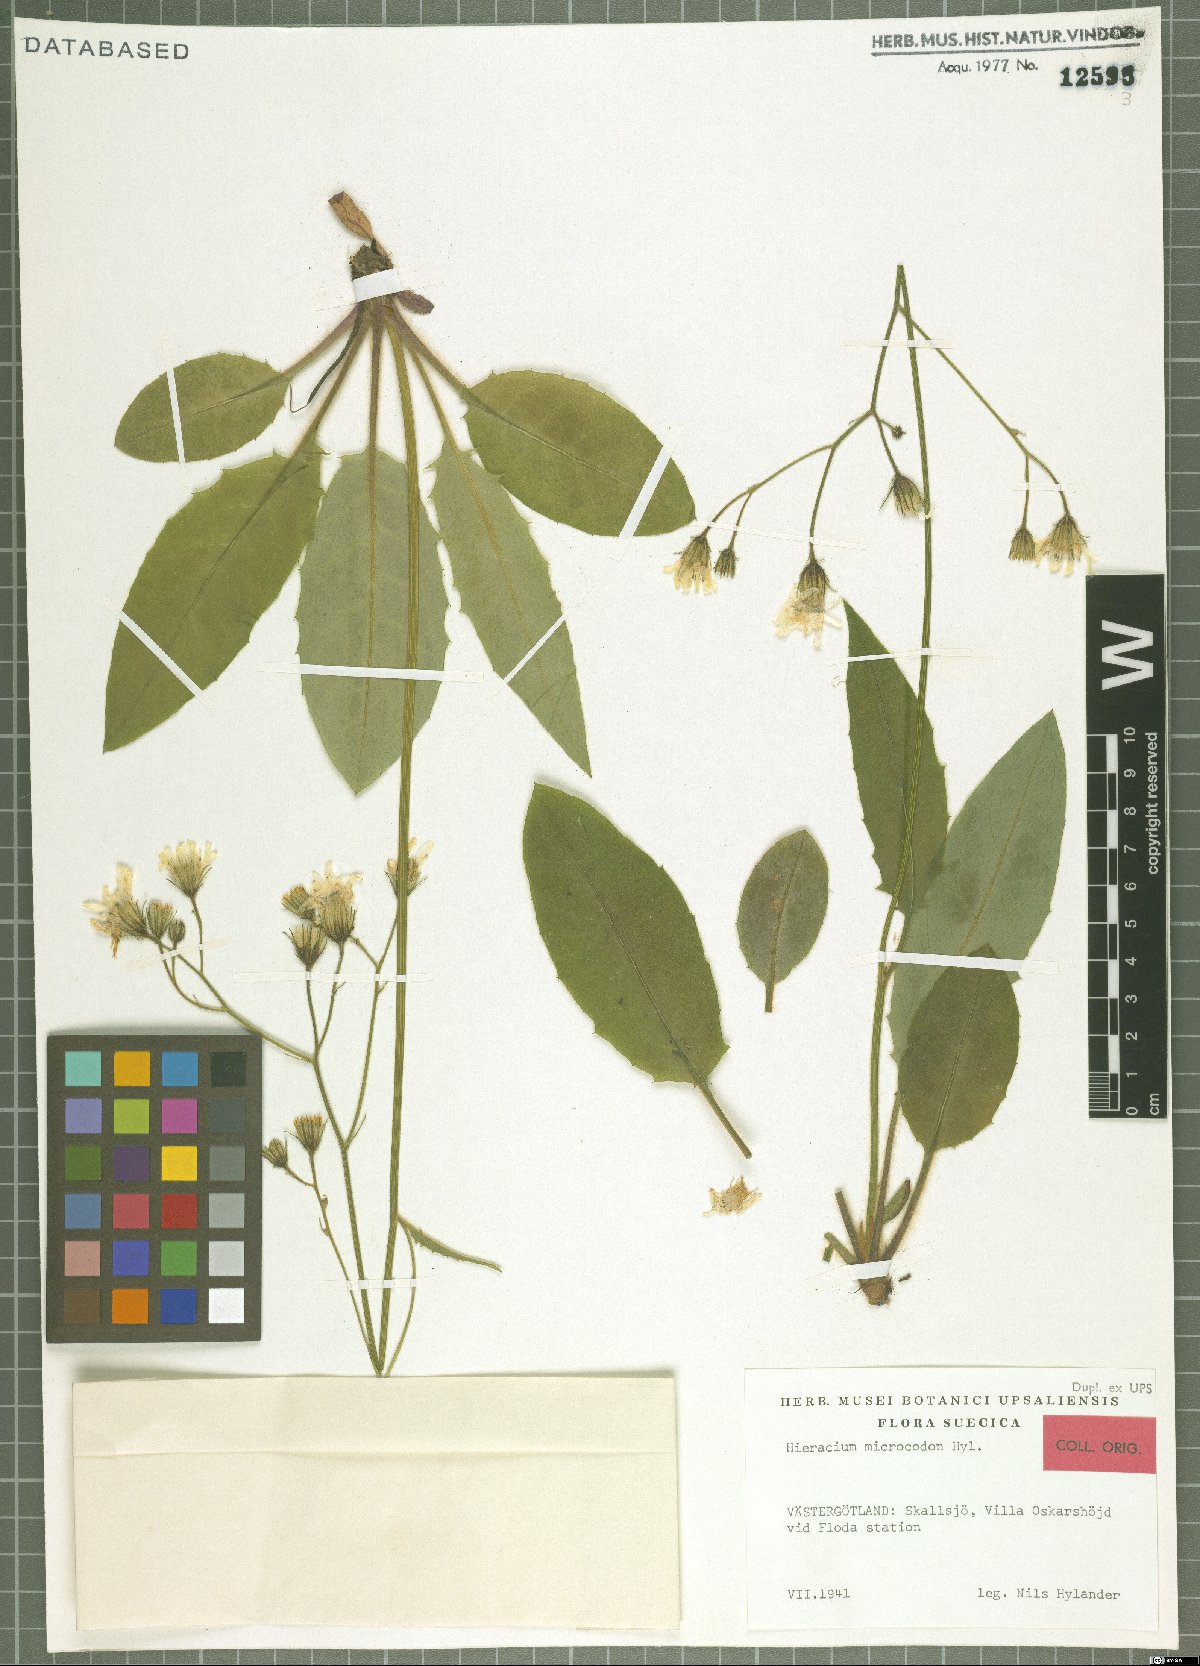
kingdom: Plantae
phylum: Tracheophyta
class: Magnoliopsida
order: Asterales
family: Asteraceae
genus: Hieracium
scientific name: Hieracium microcodon
